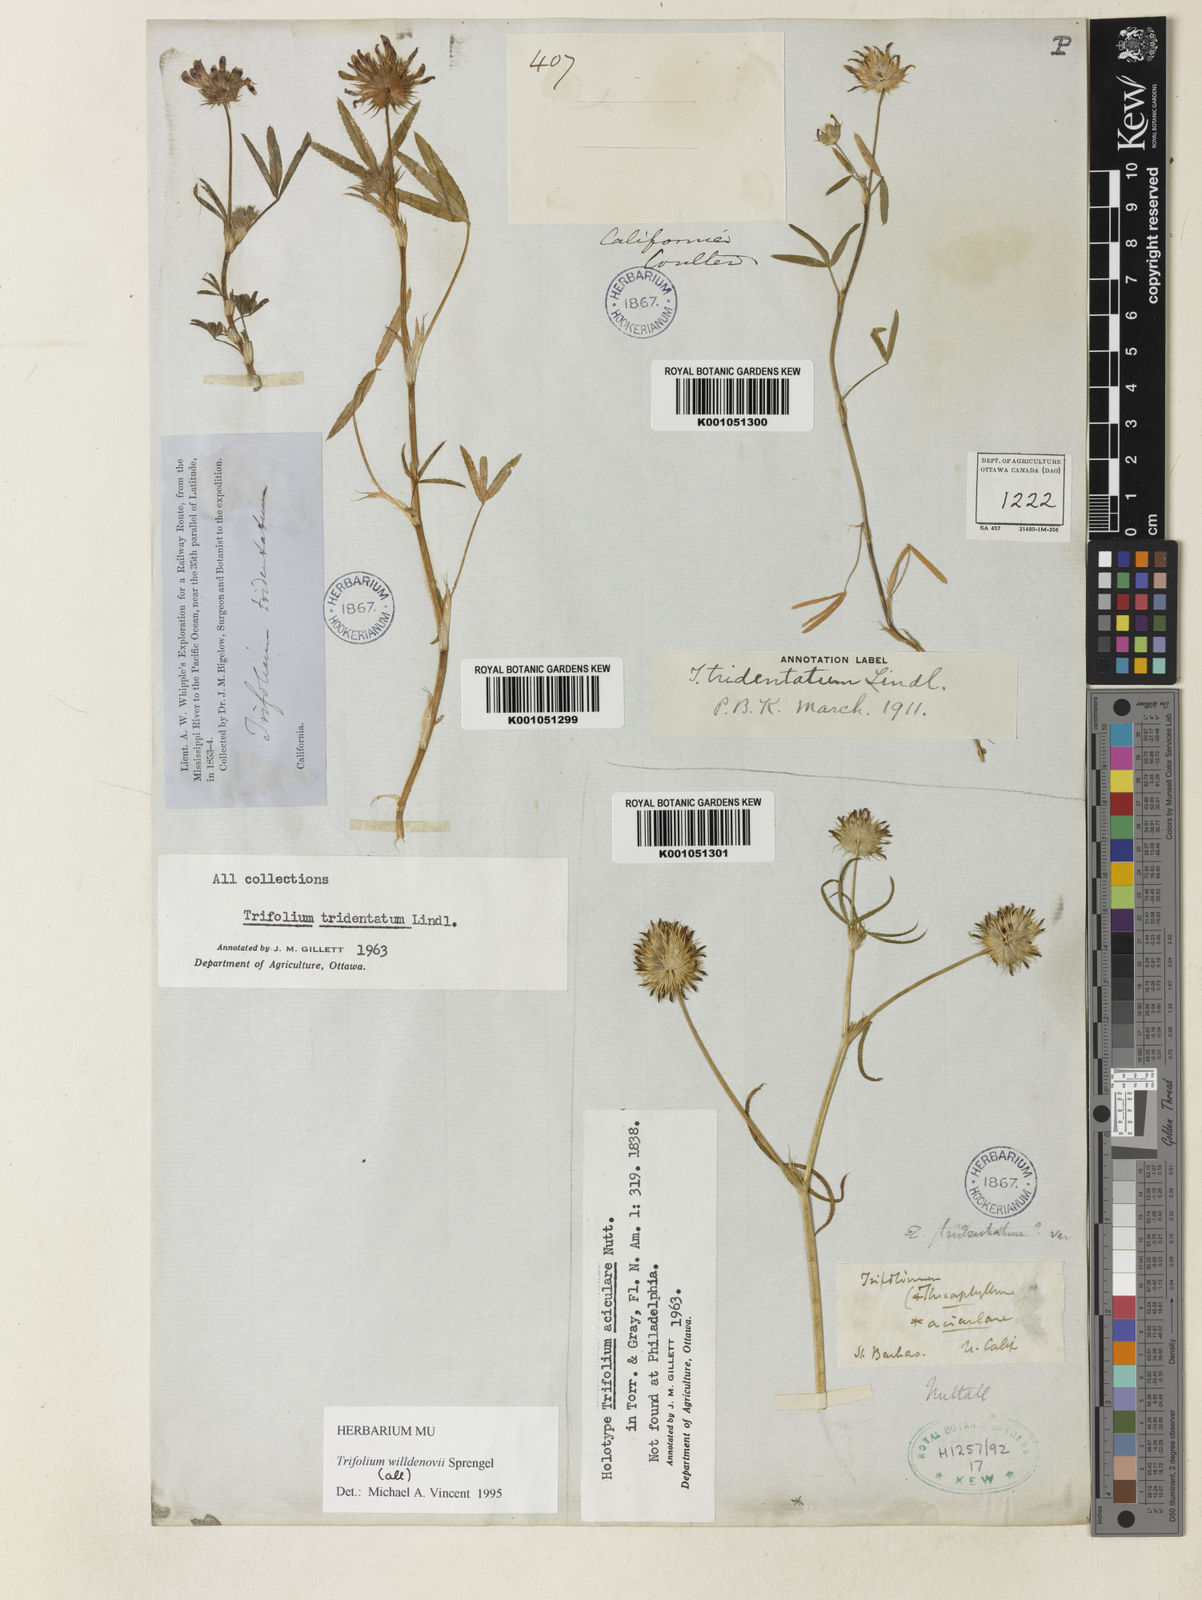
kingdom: Plantae
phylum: Tracheophyta
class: Magnoliopsida
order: Fabales
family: Fabaceae
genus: Trifolium
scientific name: Trifolium willdenovii
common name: Tomcat clover
